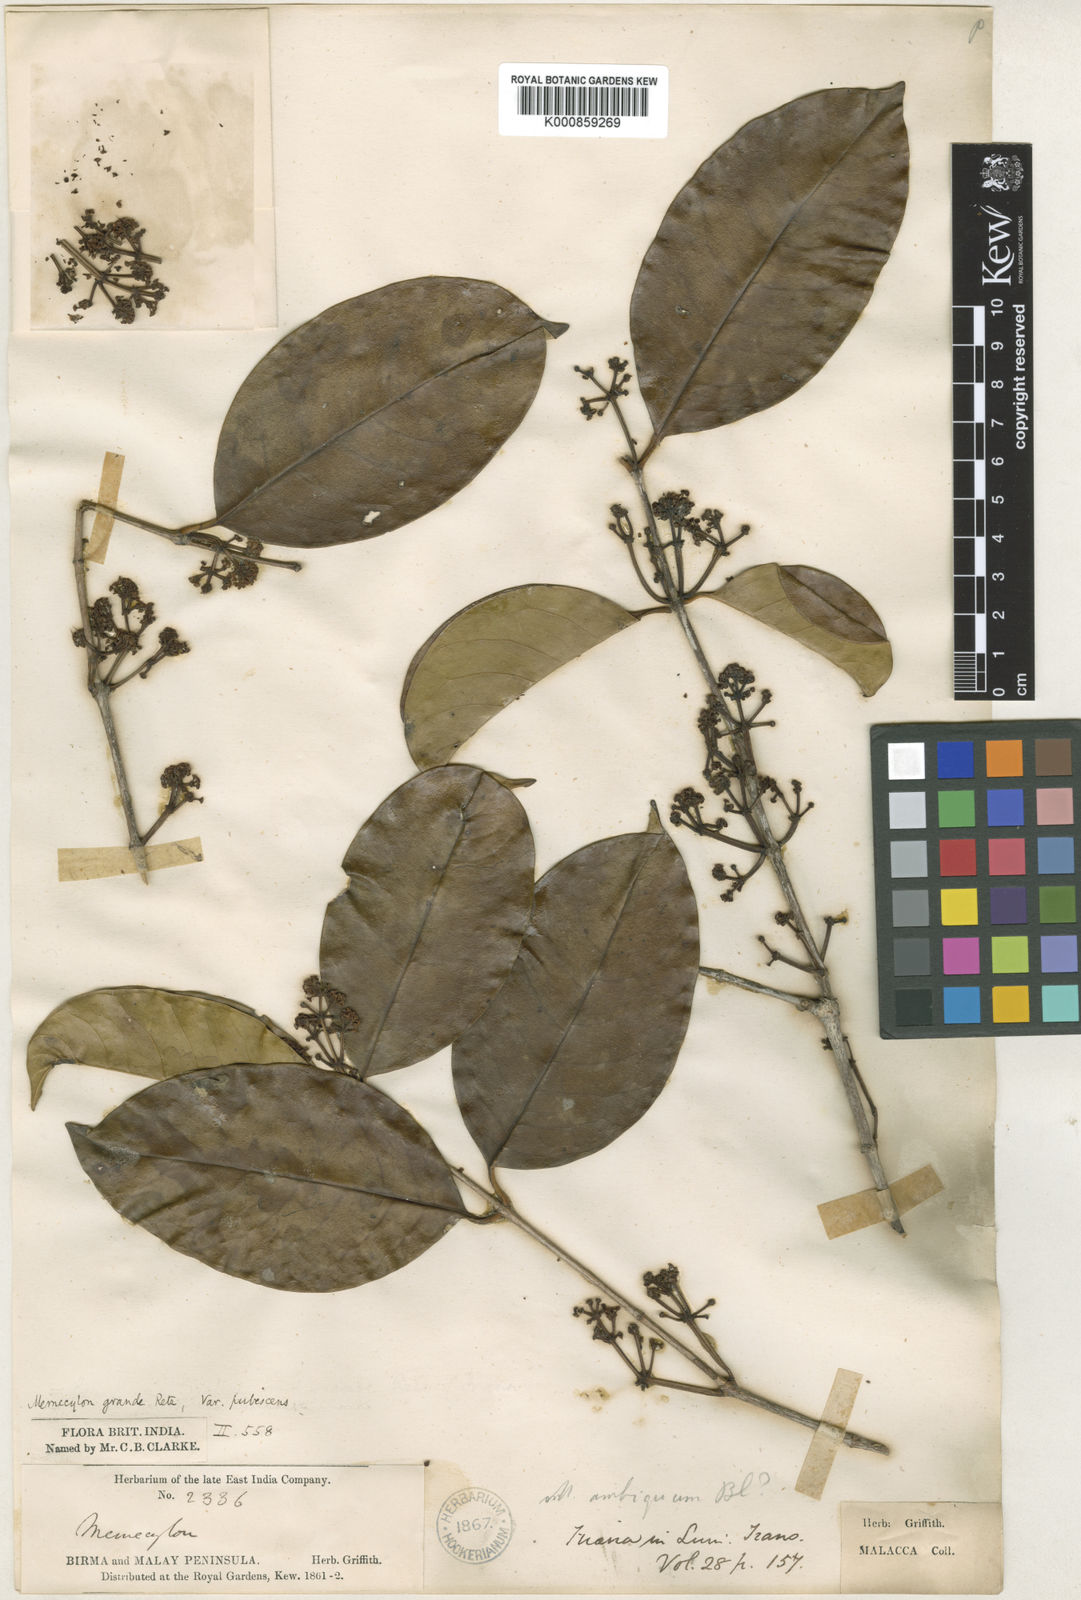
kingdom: Plantae
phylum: Tracheophyta
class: Magnoliopsida
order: Myrtales
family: Melastomataceae
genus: Memecylon
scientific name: Memecylon
